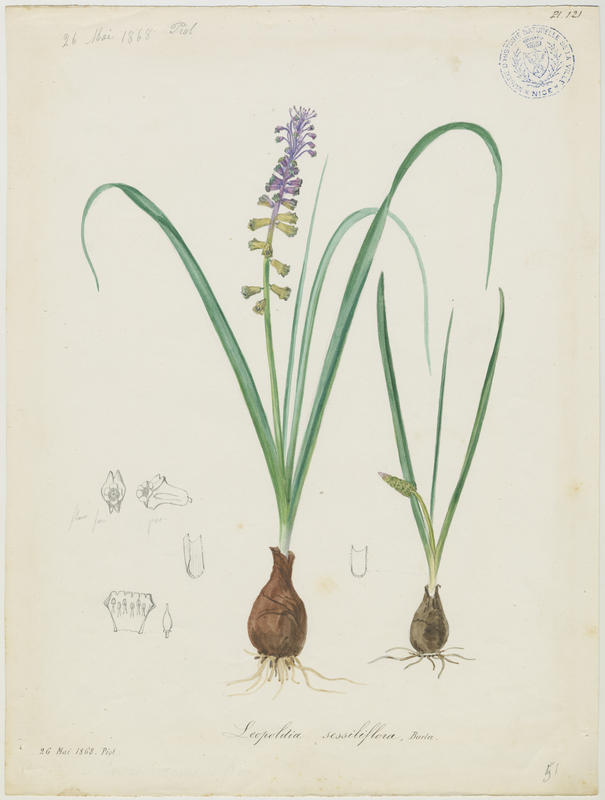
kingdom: Plantae
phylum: Tracheophyta
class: Liliopsida
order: Asparagales
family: Asparagaceae
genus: Muscari
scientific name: Muscari comosum
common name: Tassel hyacinth
